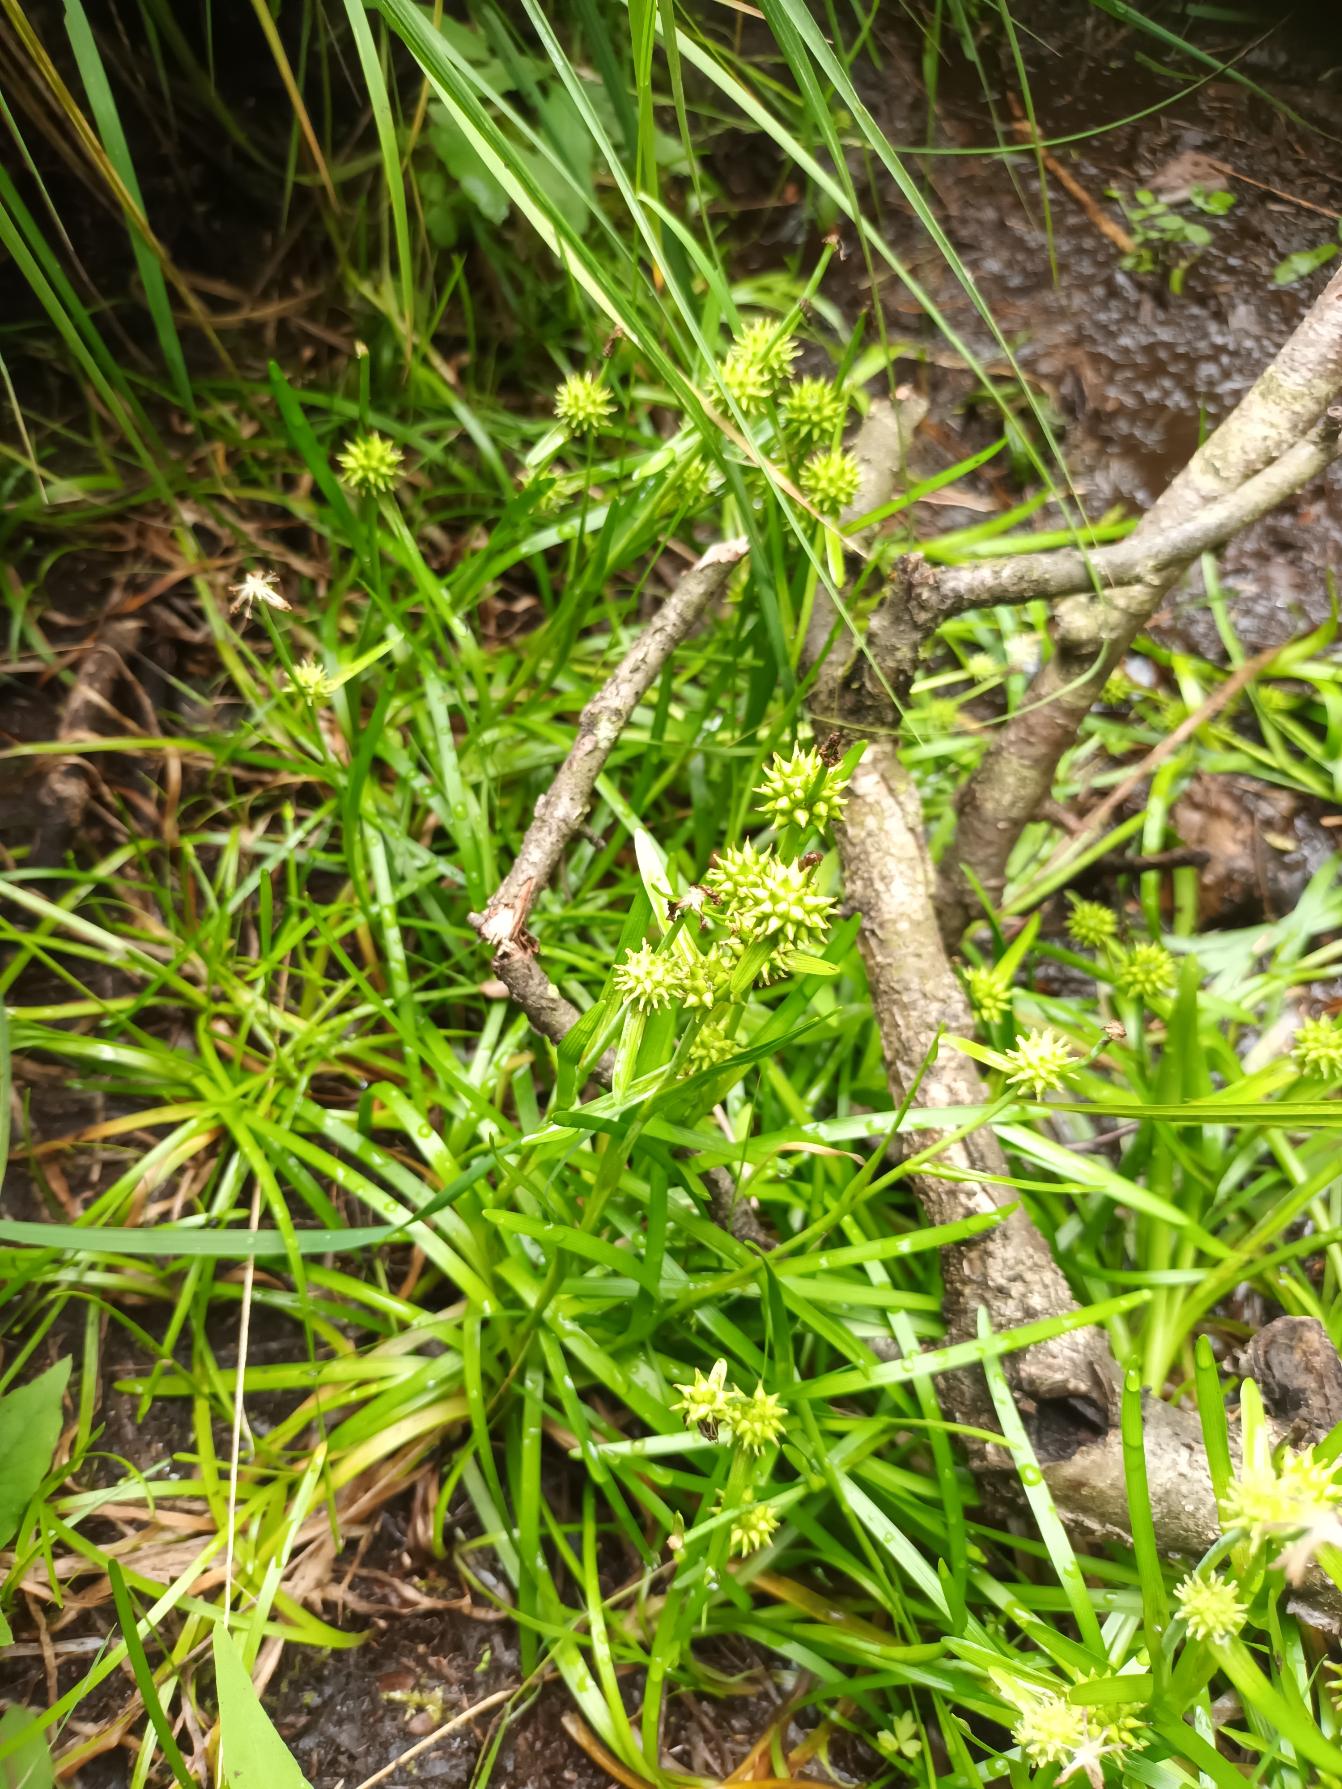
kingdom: Plantae
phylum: Tracheophyta
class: Liliopsida
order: Poales
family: Typhaceae
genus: Sparganium
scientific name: Sparganium natans
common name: Spæd pindsvineknop
